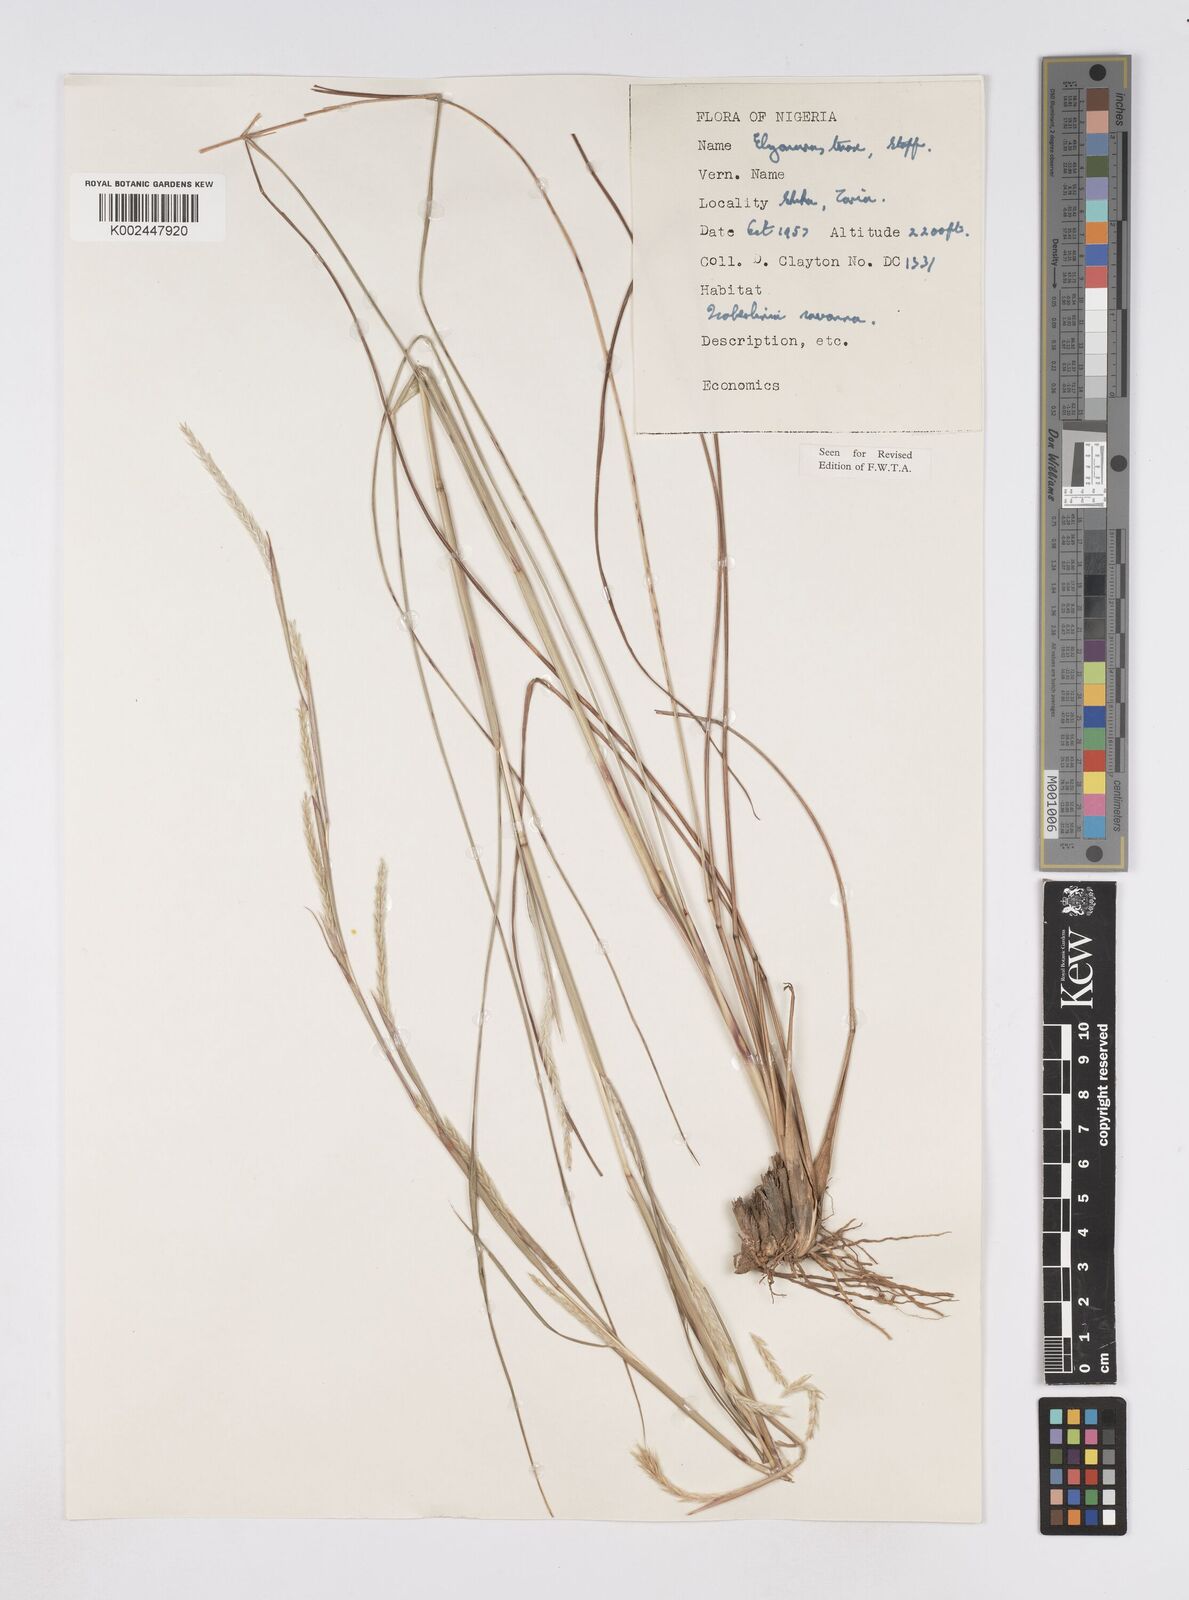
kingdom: Plantae
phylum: Tracheophyta
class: Liliopsida
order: Poales
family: Poaceae
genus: Elionurus
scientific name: Elionurus
